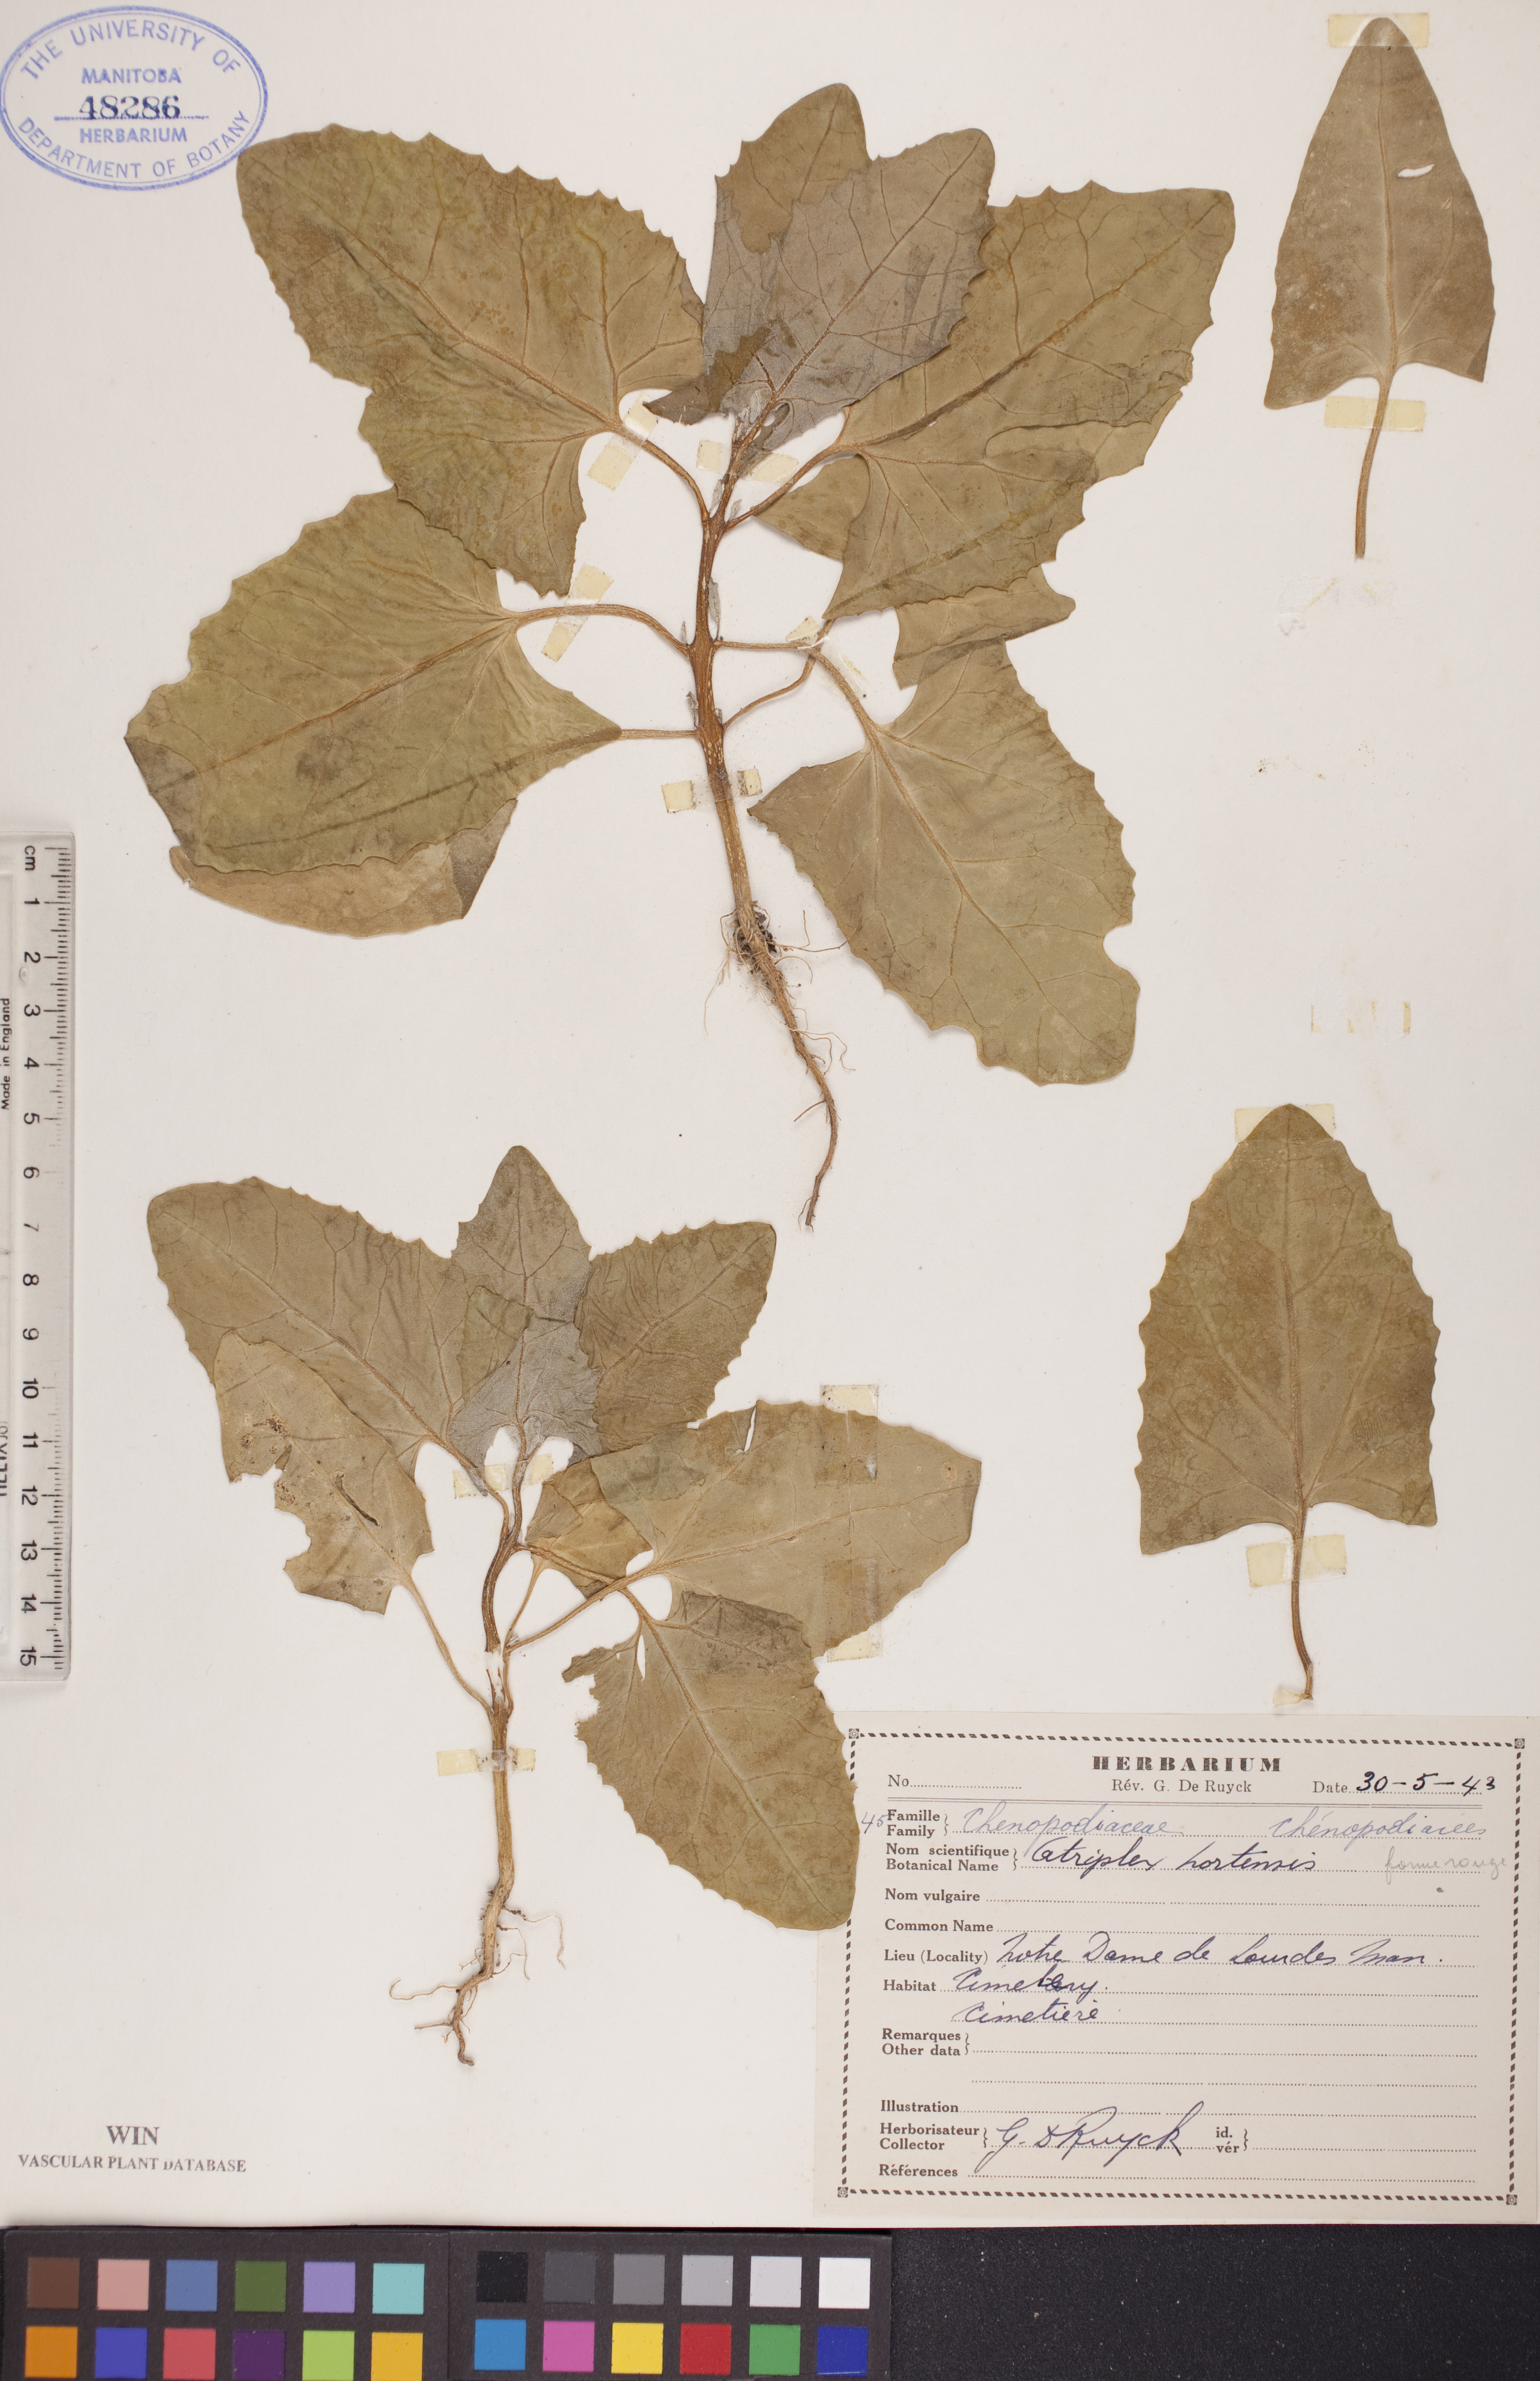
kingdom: Plantae
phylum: Tracheophyta
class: Magnoliopsida
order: Caryophyllales
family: Amaranthaceae
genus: Atriplex
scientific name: Atriplex hortensis
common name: Garden orache
